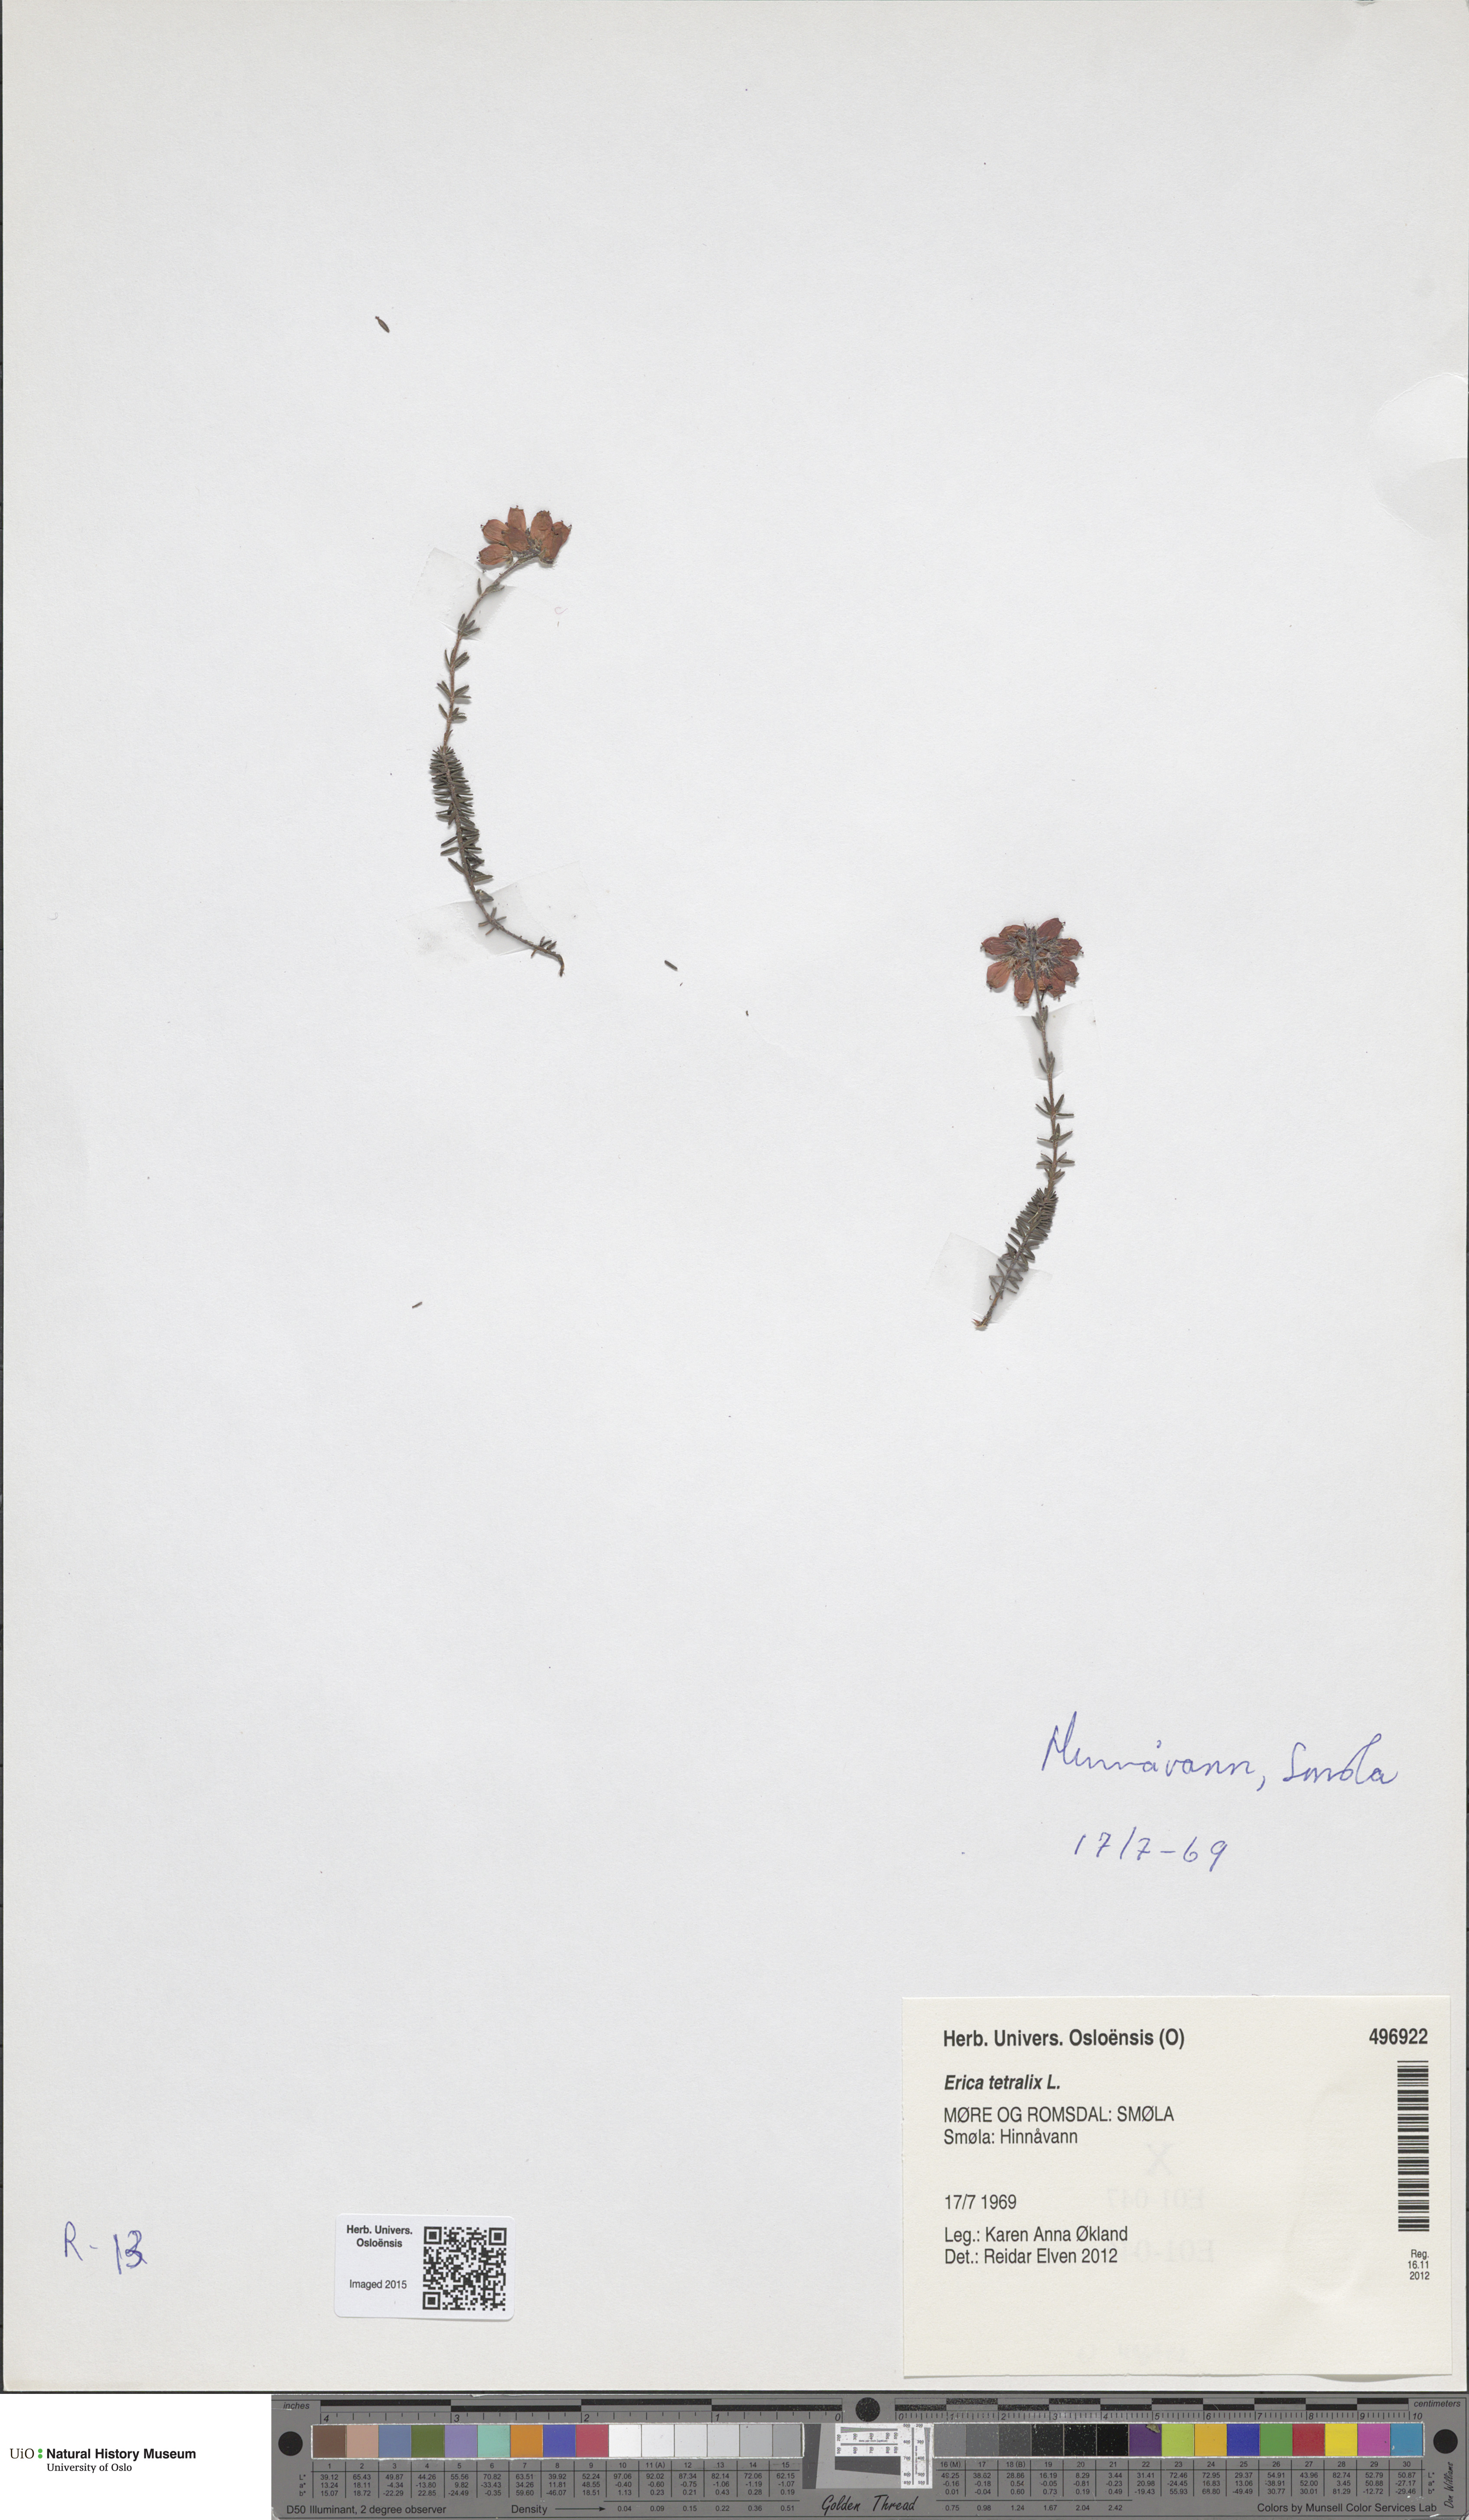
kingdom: Plantae
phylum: Tracheophyta
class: Magnoliopsida
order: Ericales
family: Ericaceae
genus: Erica
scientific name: Erica tetralix
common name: Cross-leaved heath
